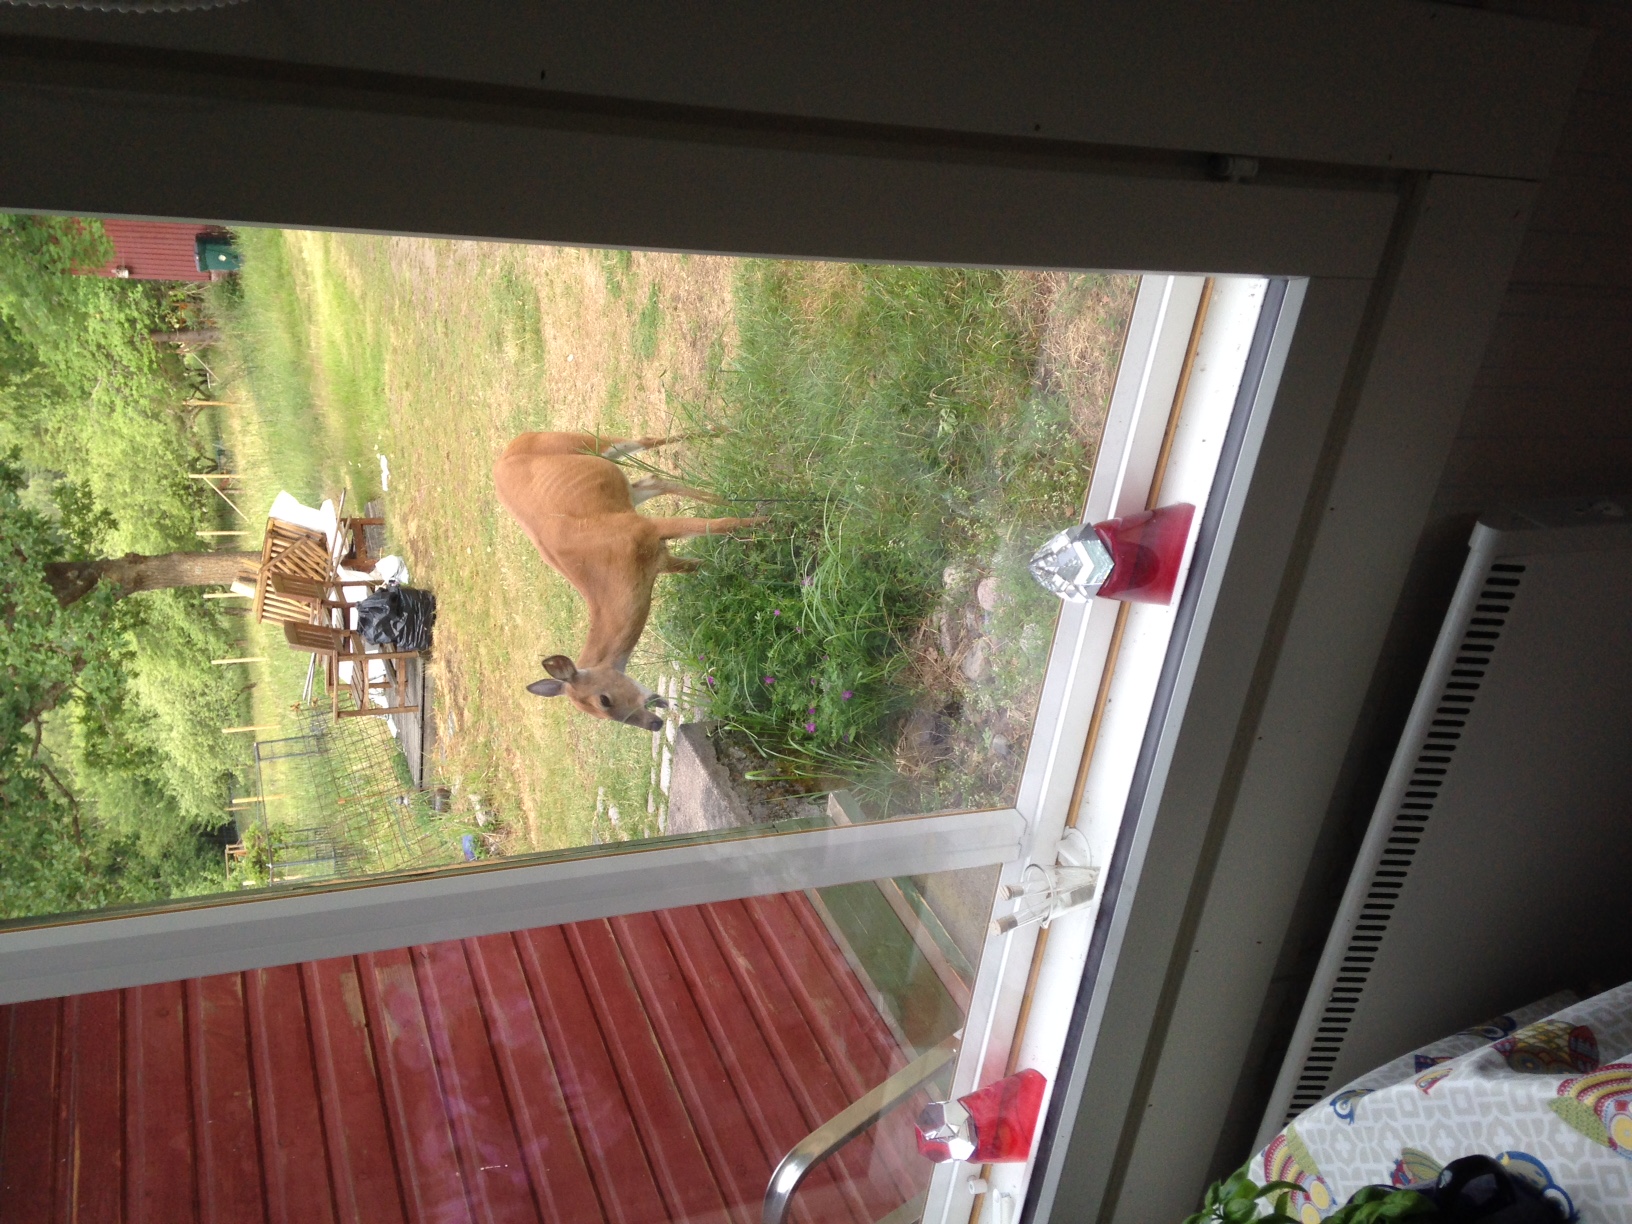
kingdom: Animalia
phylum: Chordata
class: Mammalia
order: Artiodactyla
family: Cervidae
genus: Odocoileus
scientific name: Odocoileus virginianus
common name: White-tailed deer
